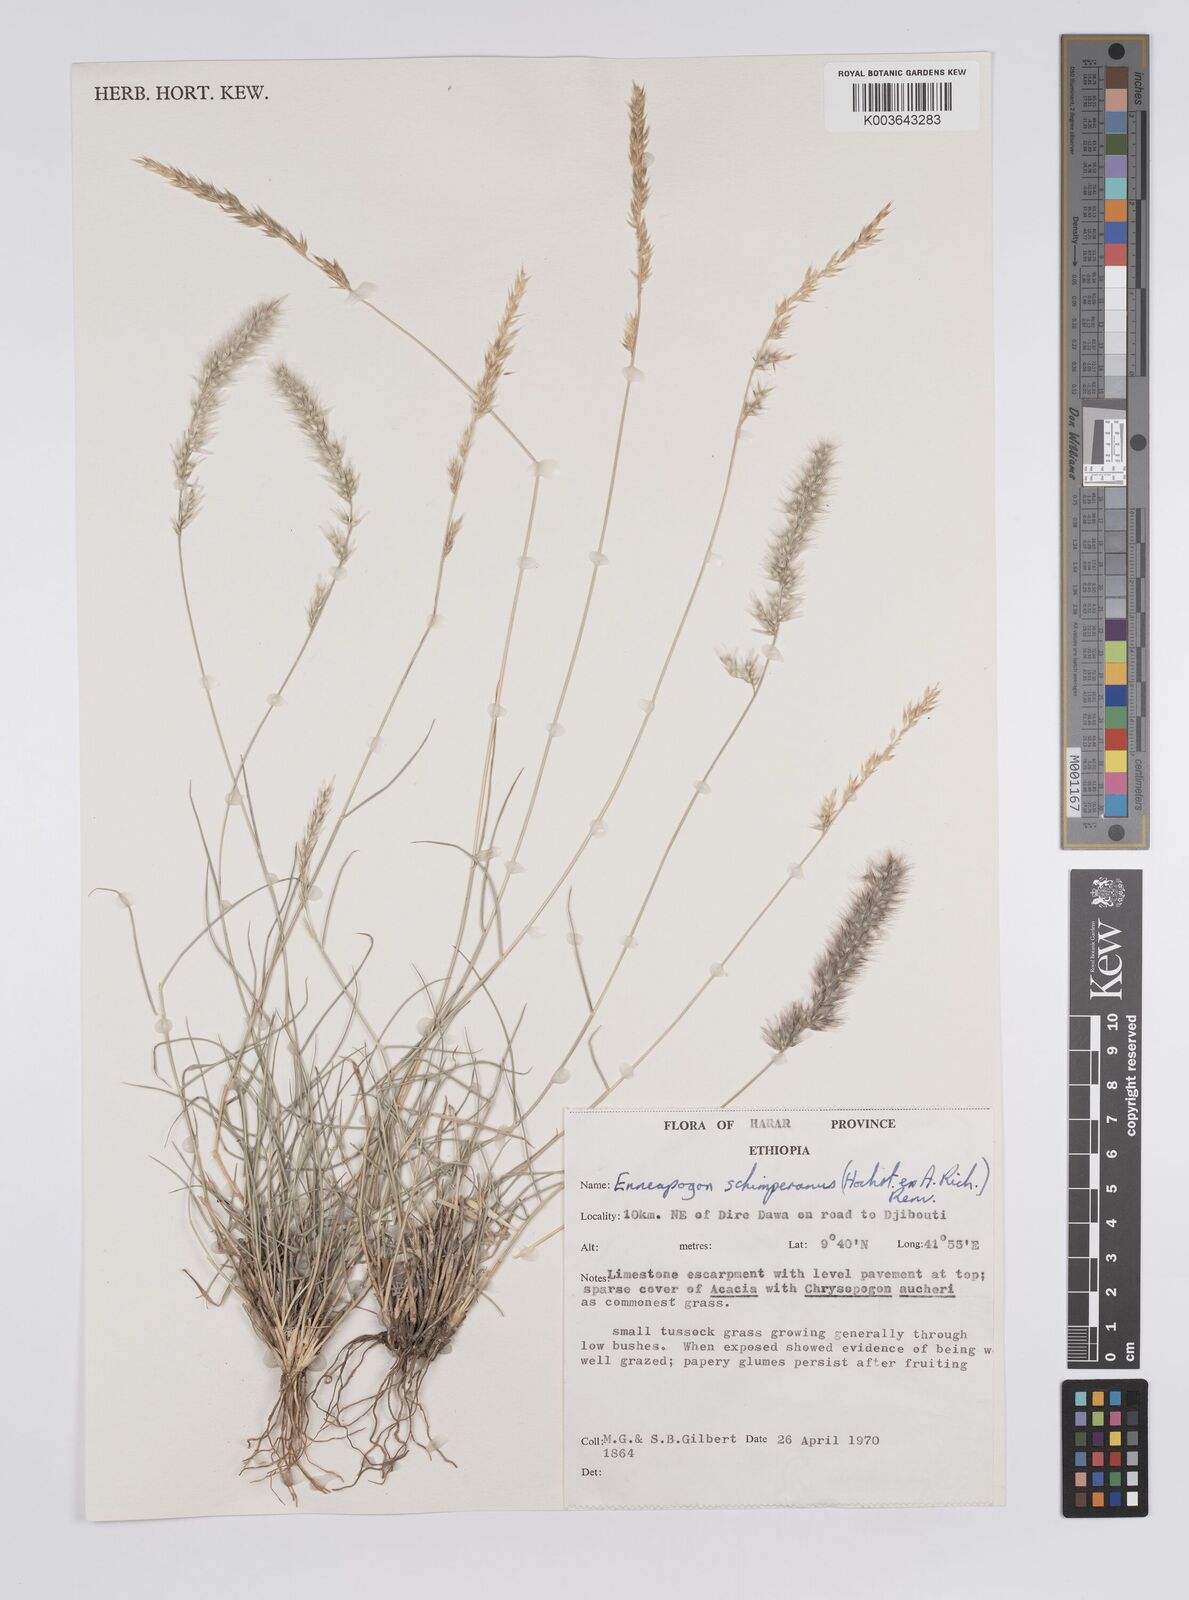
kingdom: Plantae
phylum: Tracheophyta
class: Liliopsida
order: Poales
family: Poaceae
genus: Enneapogon
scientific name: Enneapogon persicus
